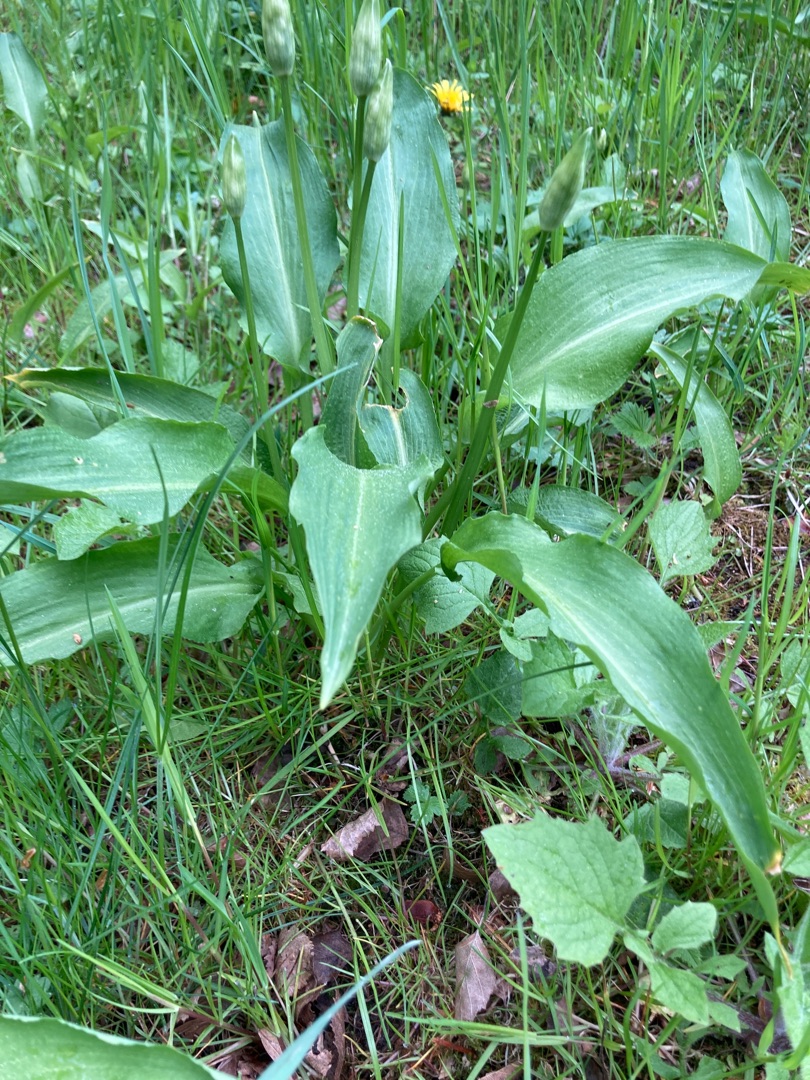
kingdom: Plantae
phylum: Tracheophyta
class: Liliopsida
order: Asparagales
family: Amaryllidaceae
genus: Allium
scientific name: Allium ursinum
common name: Rams-løg
